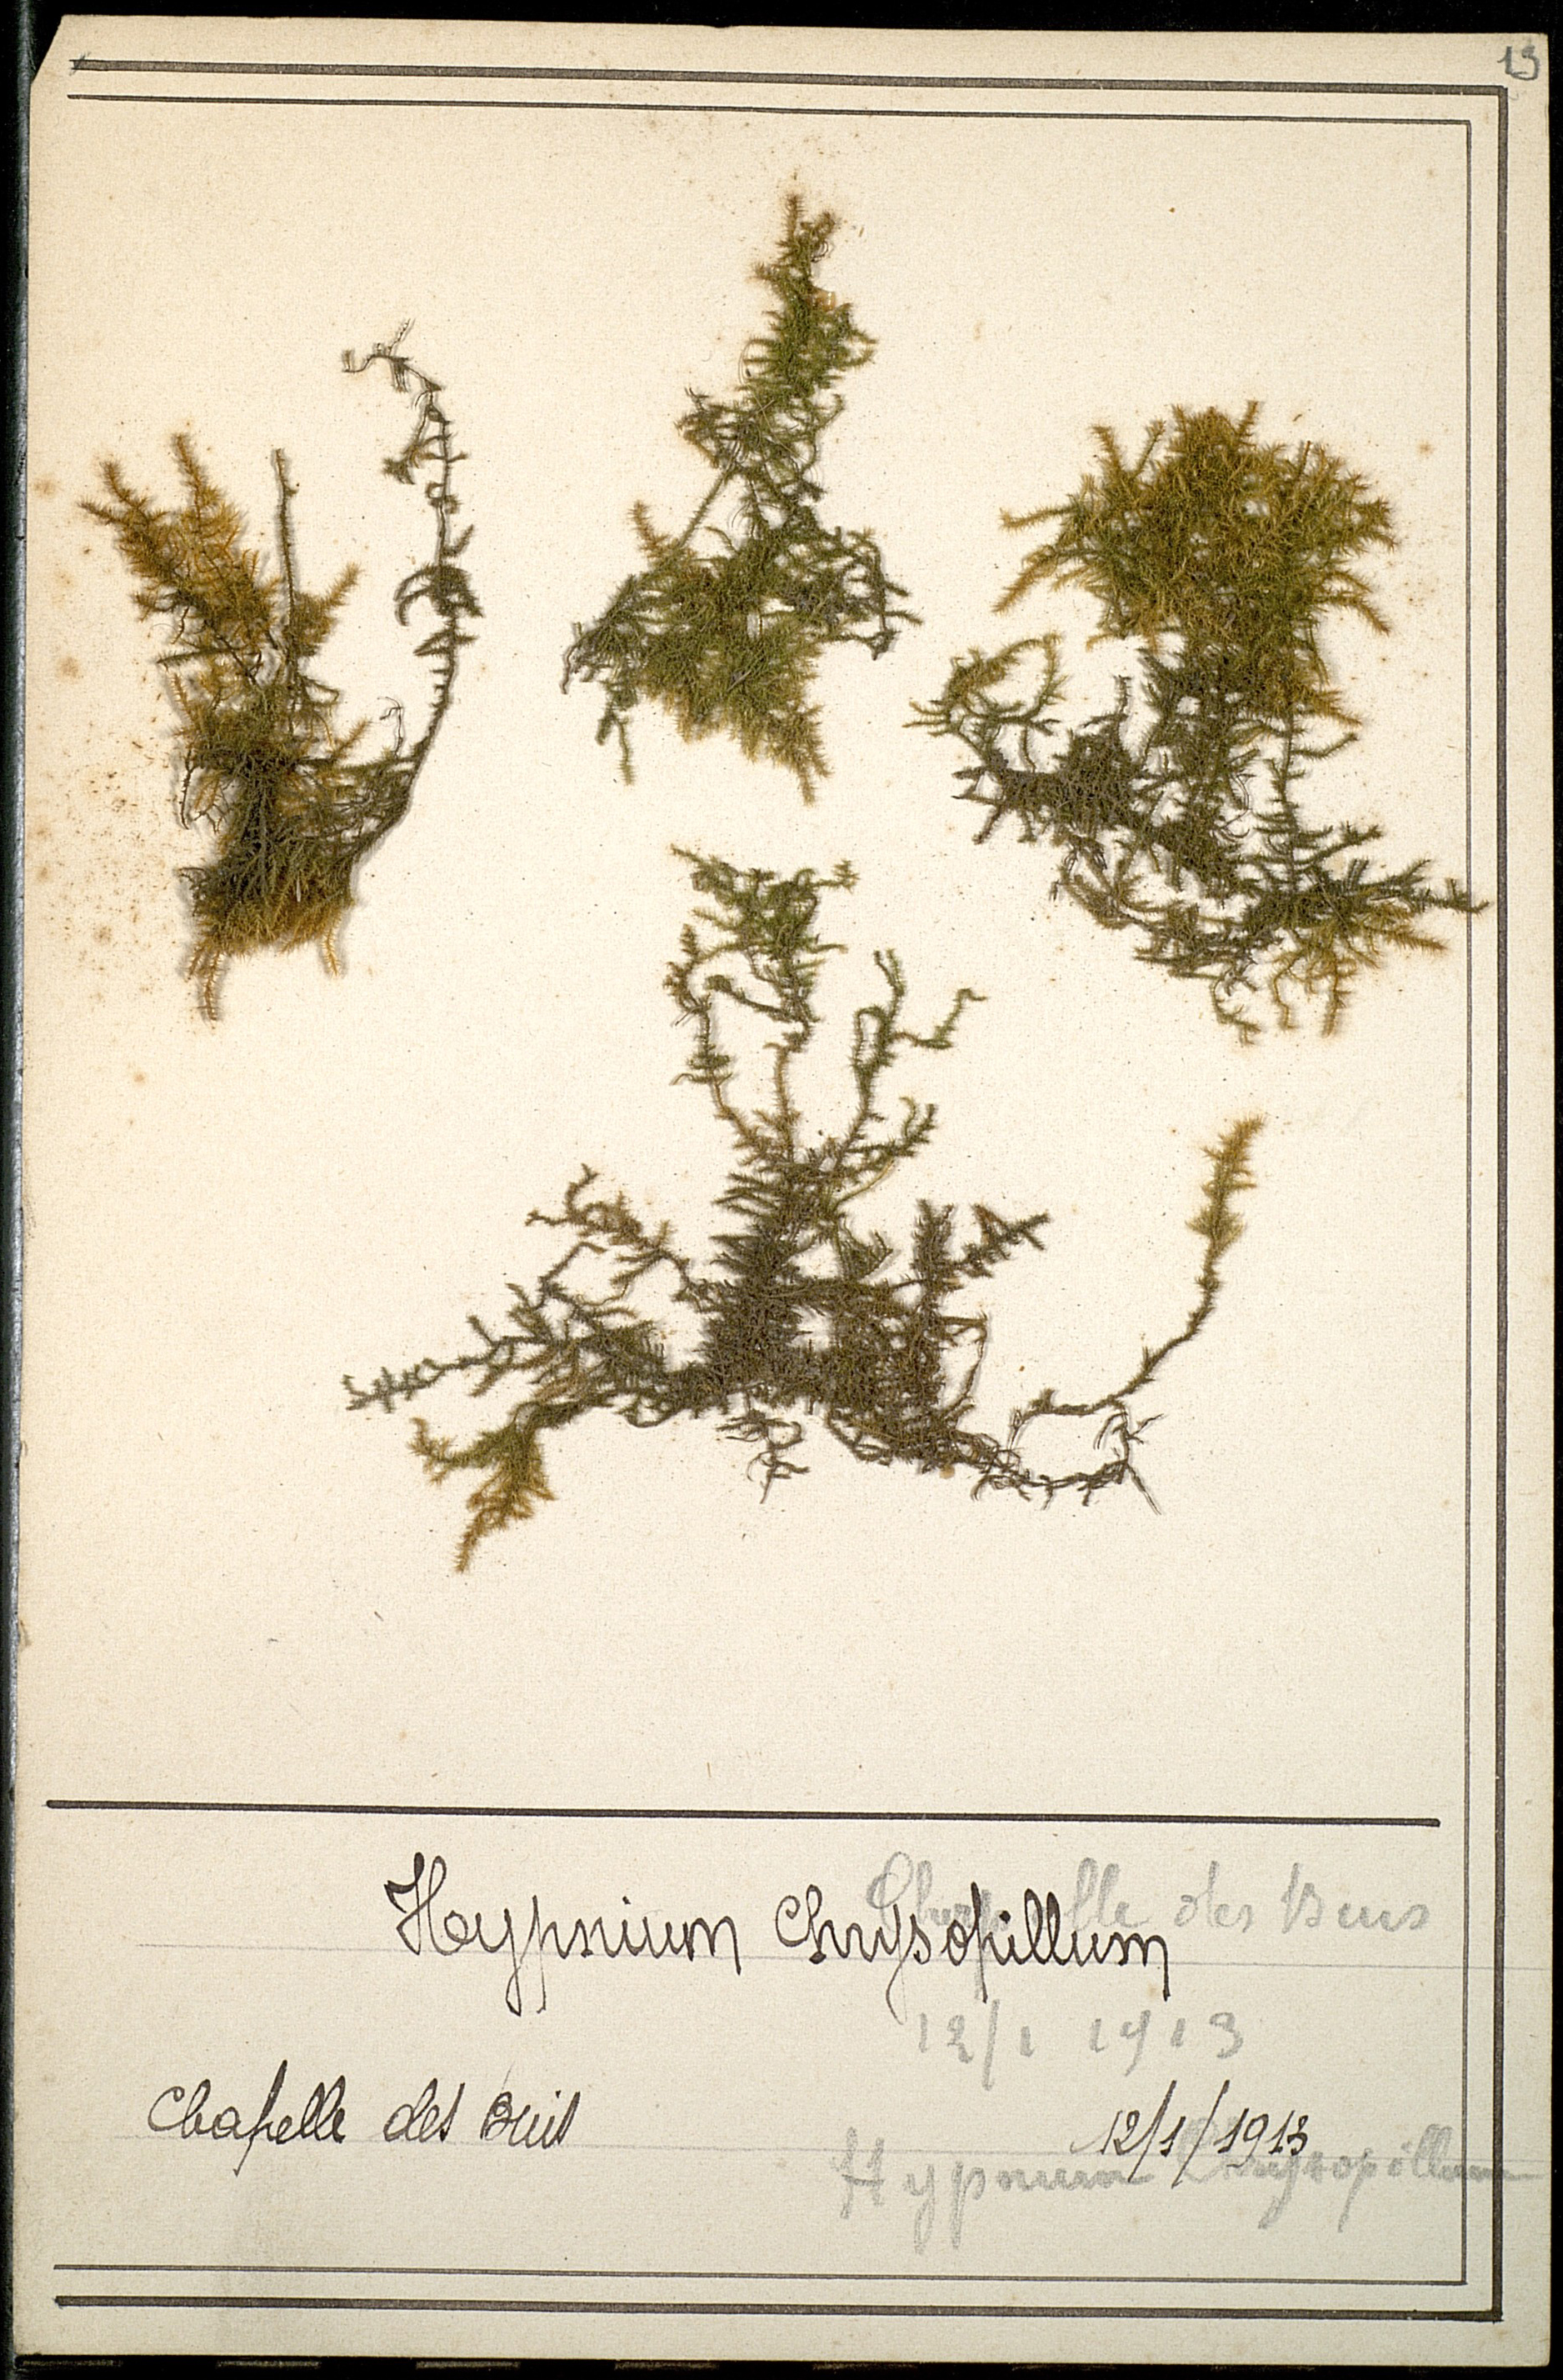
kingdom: Plantae
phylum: Bryophyta
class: Bryopsida
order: Hypnales
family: Amblystegiaceae
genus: Campylium
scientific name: Campylium chrysophyllum
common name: Goldenleaf campylium moss
